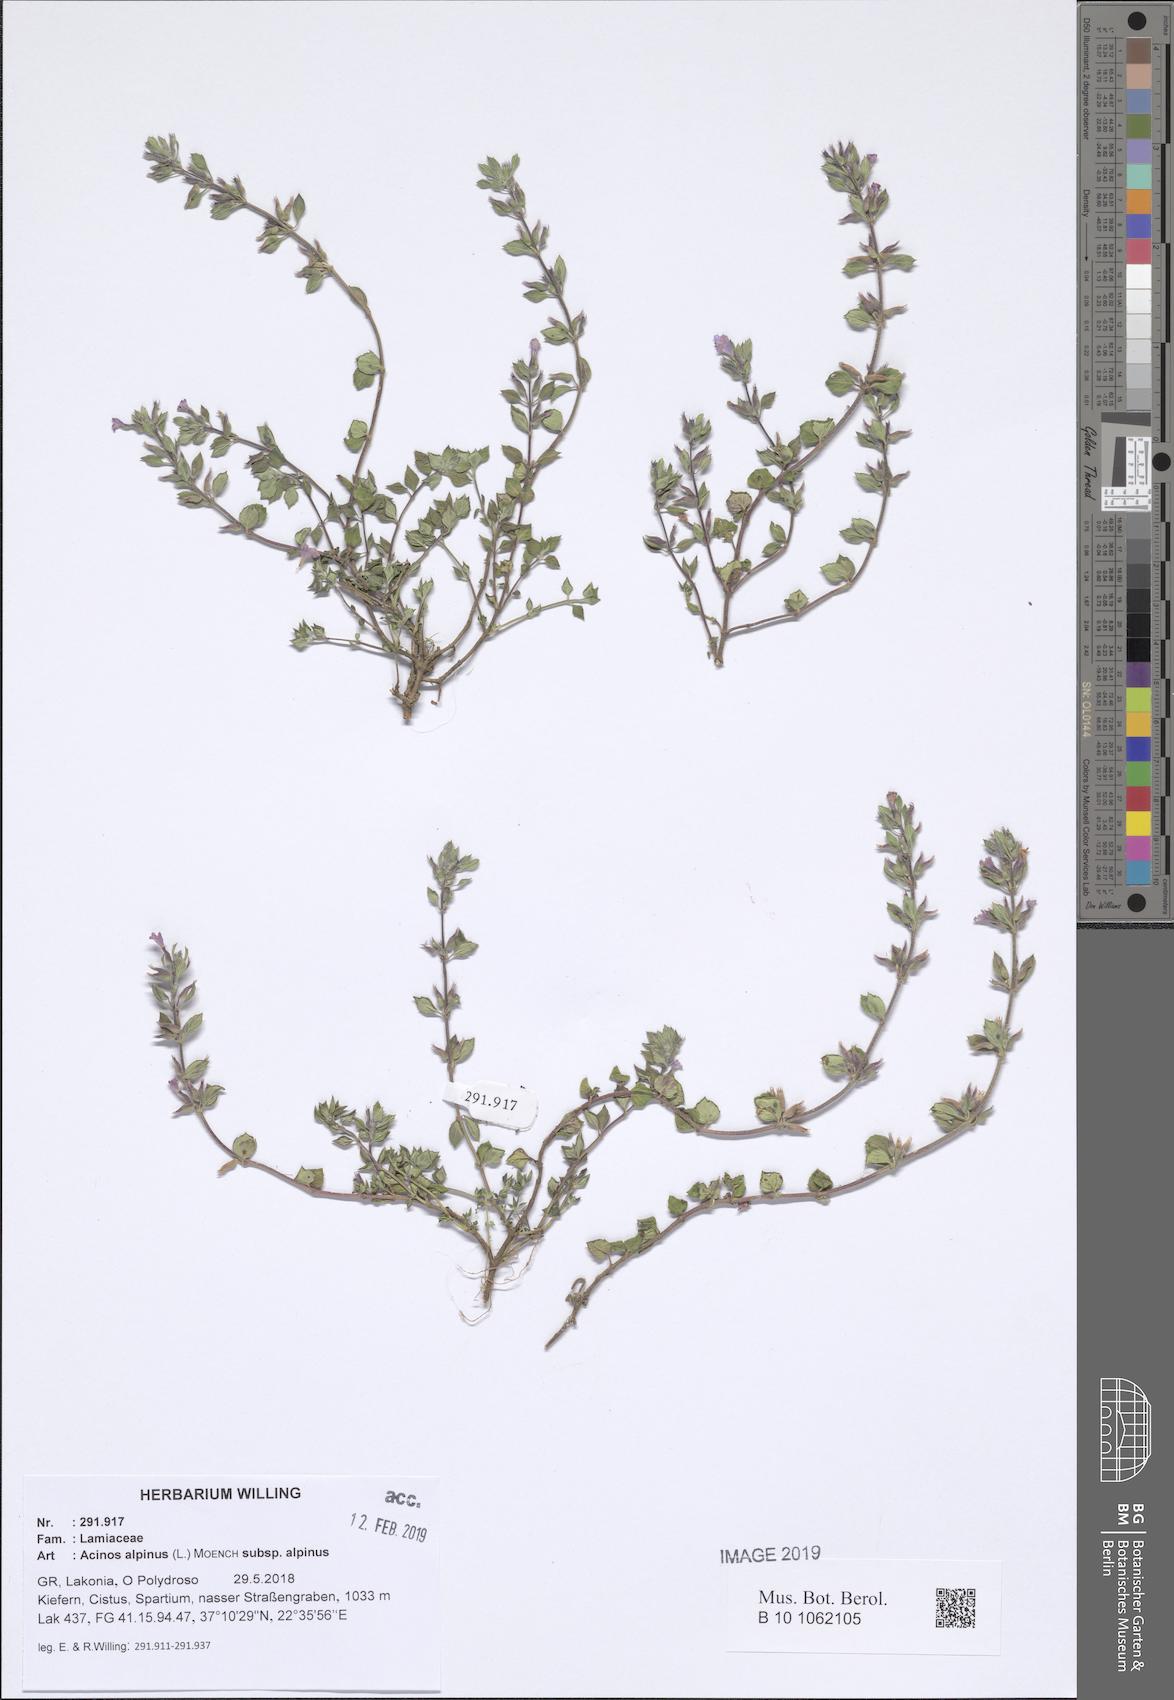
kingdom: Plantae
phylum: Tracheophyta
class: Magnoliopsida
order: Lamiales
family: Lamiaceae
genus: Clinopodium
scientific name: Clinopodium alpinum
